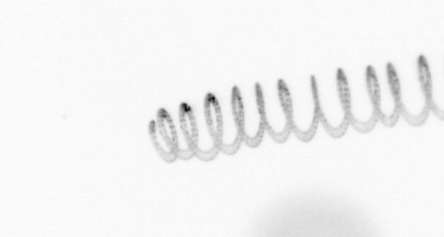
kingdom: Chromista
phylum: Ochrophyta
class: Bacillariophyceae
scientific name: Bacillariophyceae
